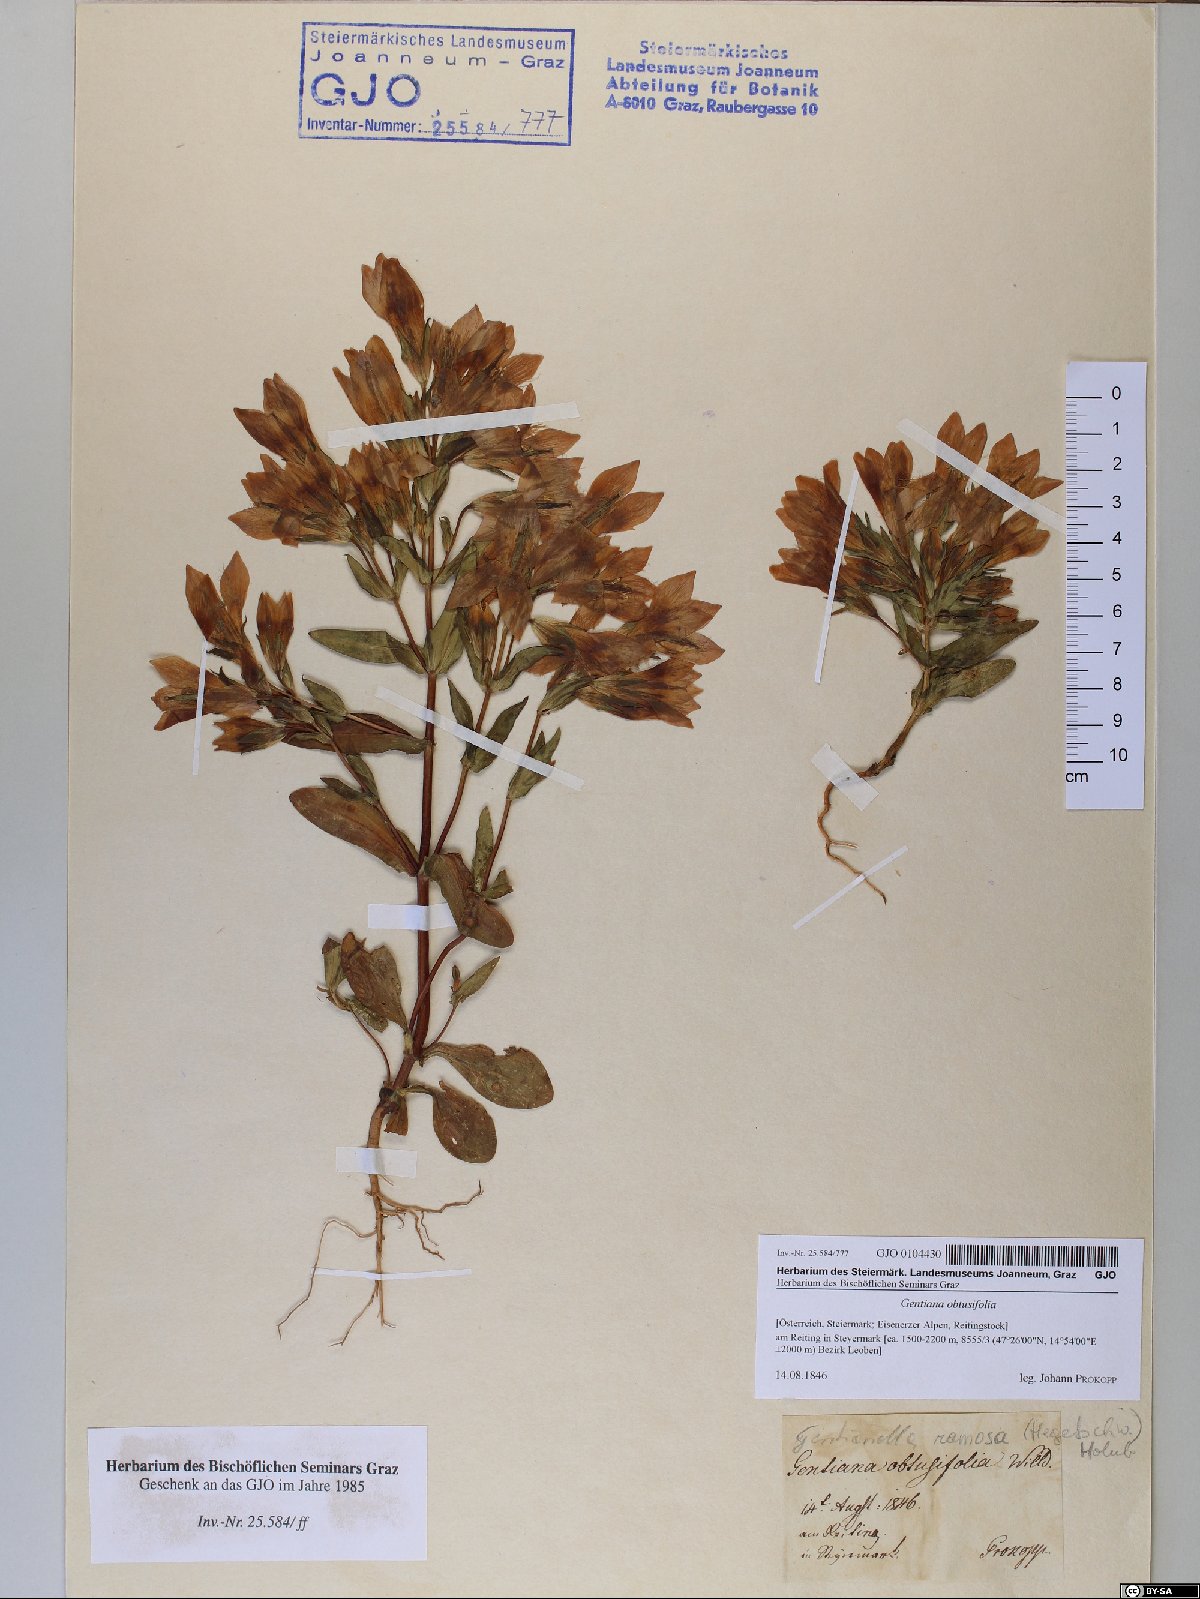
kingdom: Plantae
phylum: Tracheophyta
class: Magnoliopsida
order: Gentianales
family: Gentianaceae
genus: Gentianella
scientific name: Gentianella obtusifolia
